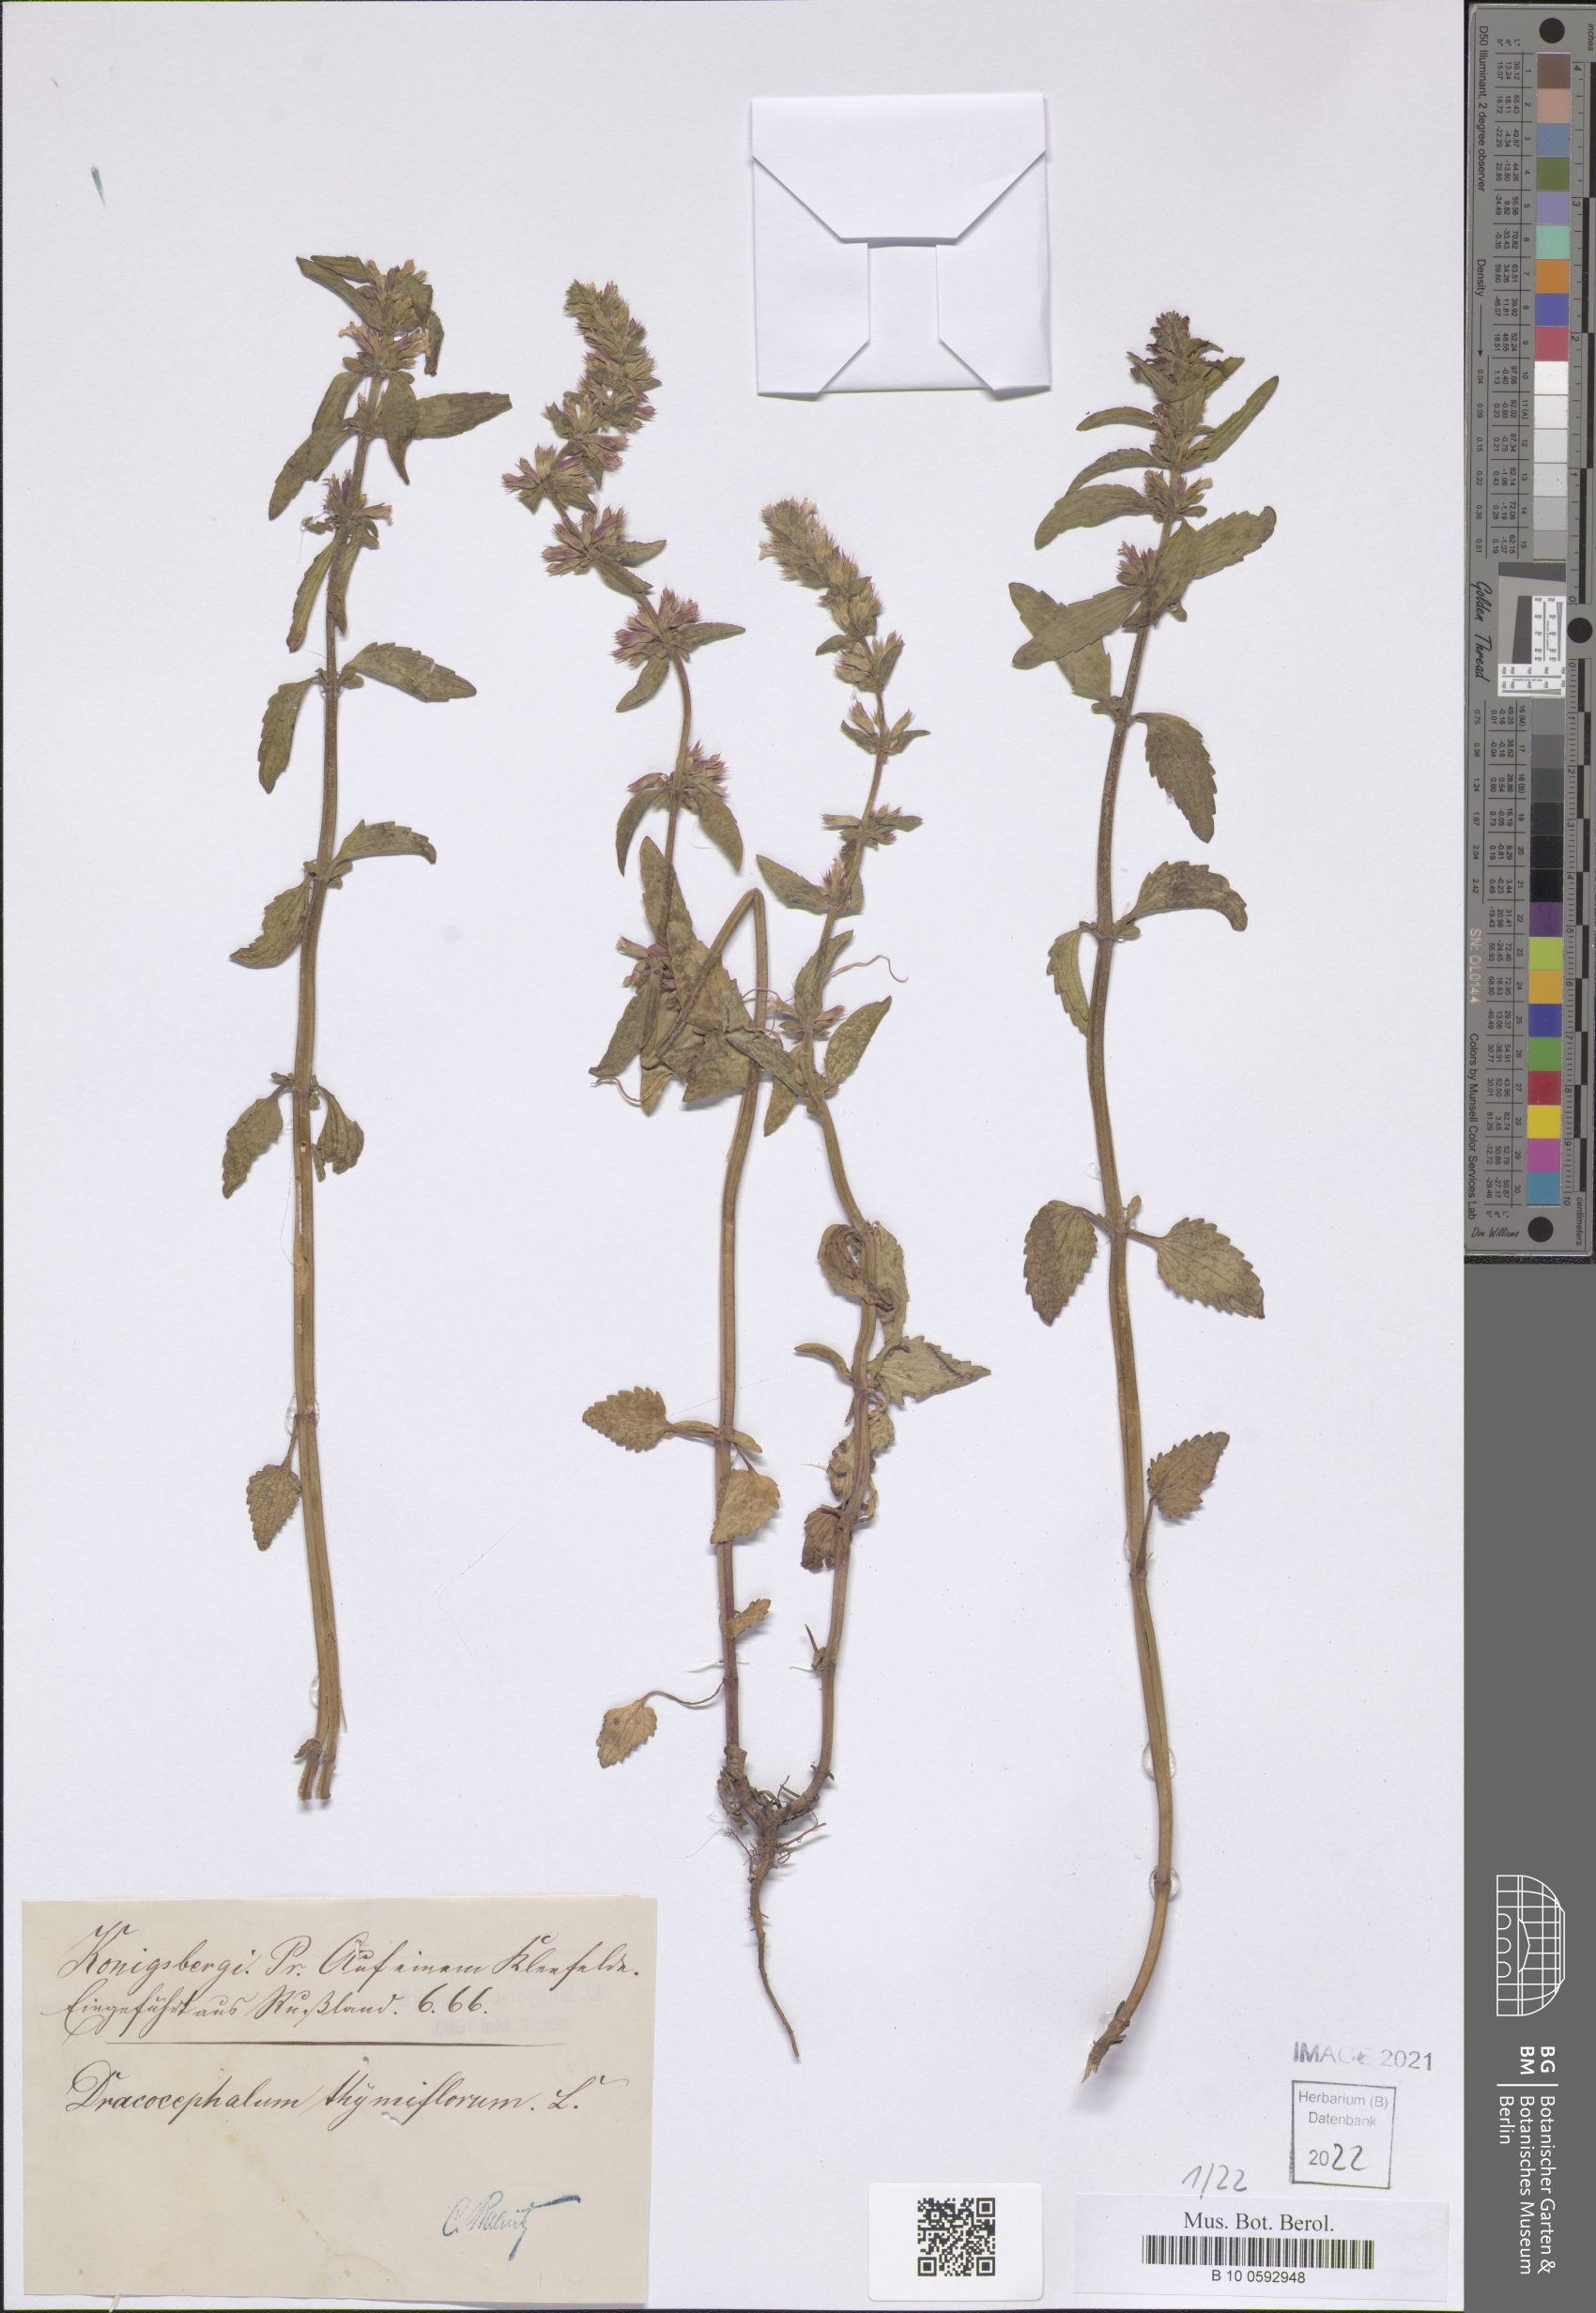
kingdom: Plantae
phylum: Tracheophyta
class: Magnoliopsida
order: Lamiales
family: Lamiaceae
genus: Dracocephalum
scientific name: Dracocephalum thymiflorum
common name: Thymeleaf dragonhead
